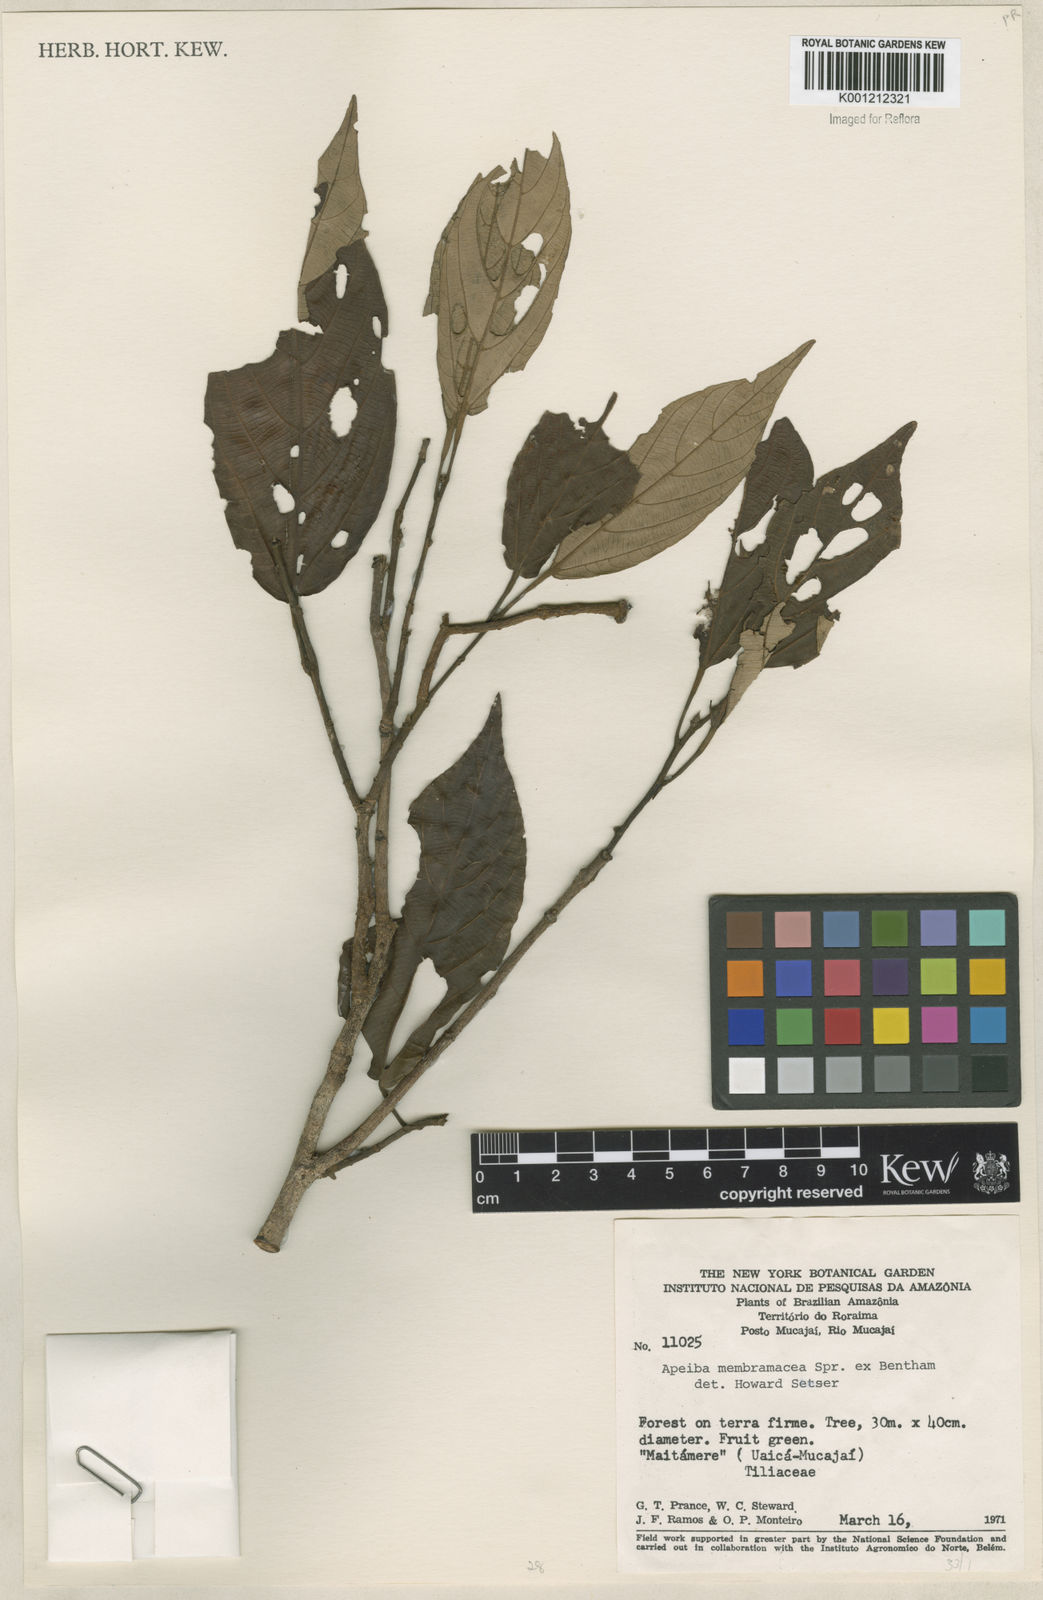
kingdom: Plantae
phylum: Tracheophyta
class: Magnoliopsida
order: Malvales
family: Malvaceae
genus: Apeiba
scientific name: Apeiba membranacea
